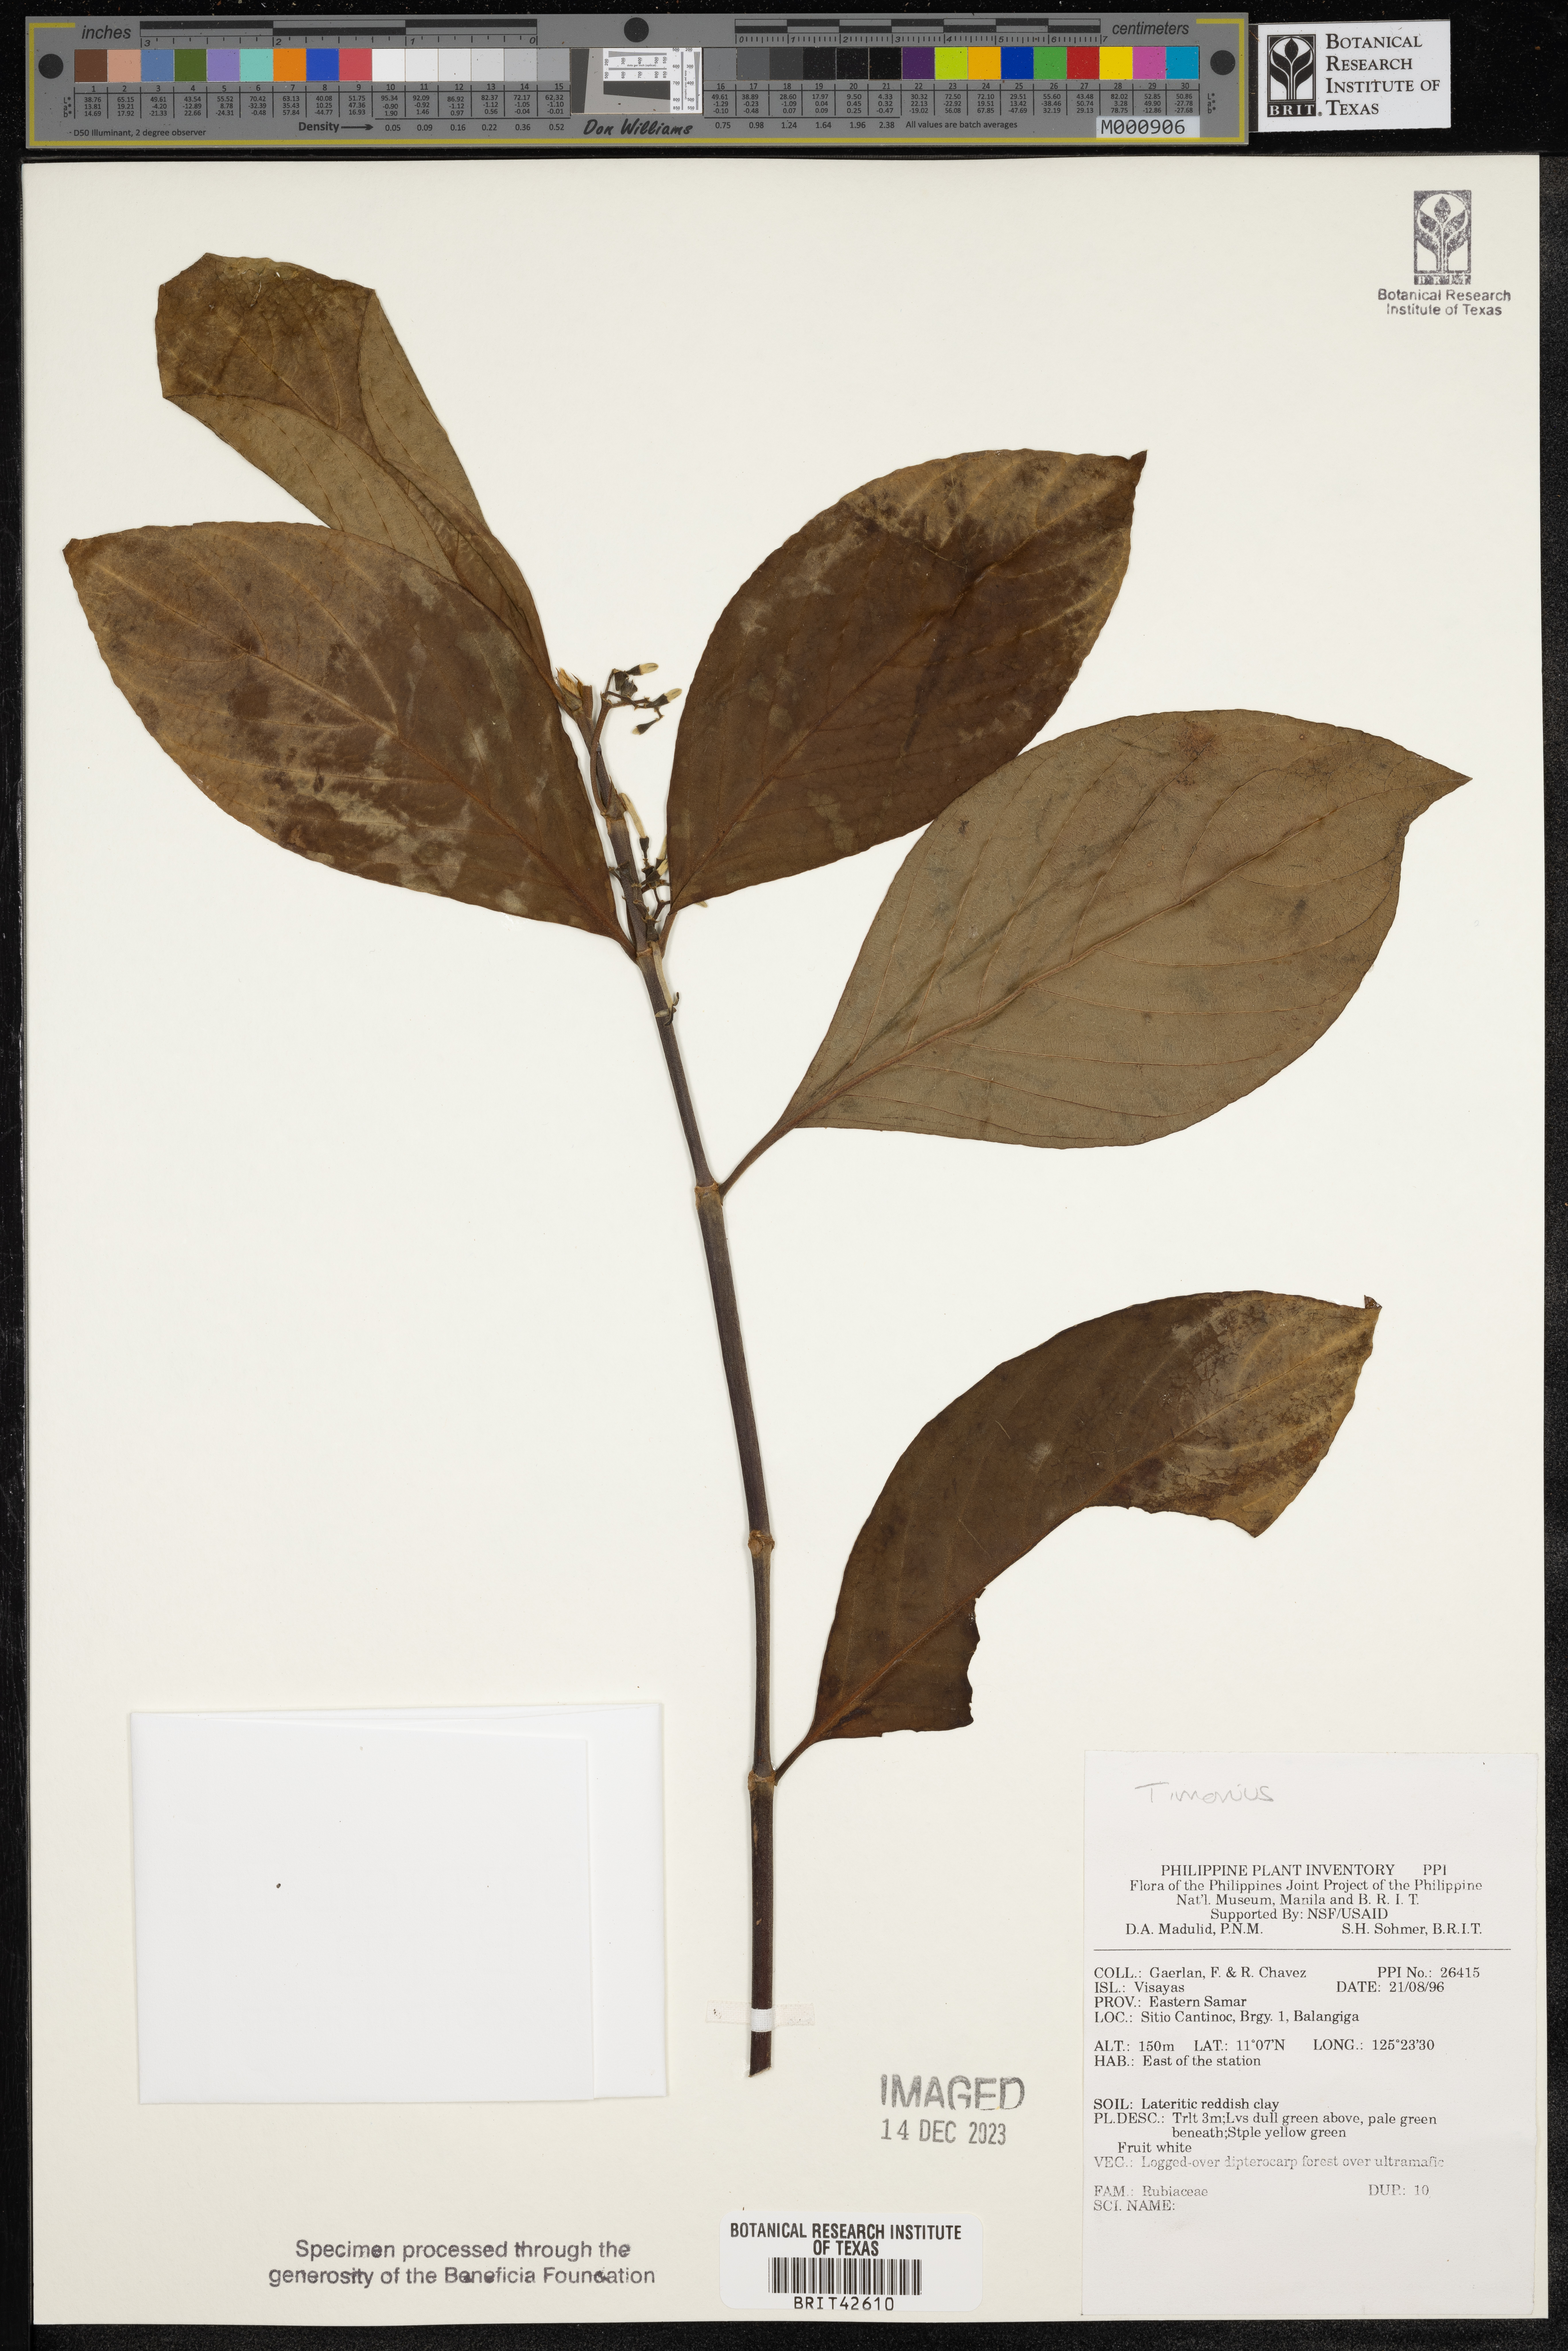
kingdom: Plantae
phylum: Tracheophyta
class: Magnoliopsida
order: Gentianales
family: Rubiaceae
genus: Timonius
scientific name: Timonius
